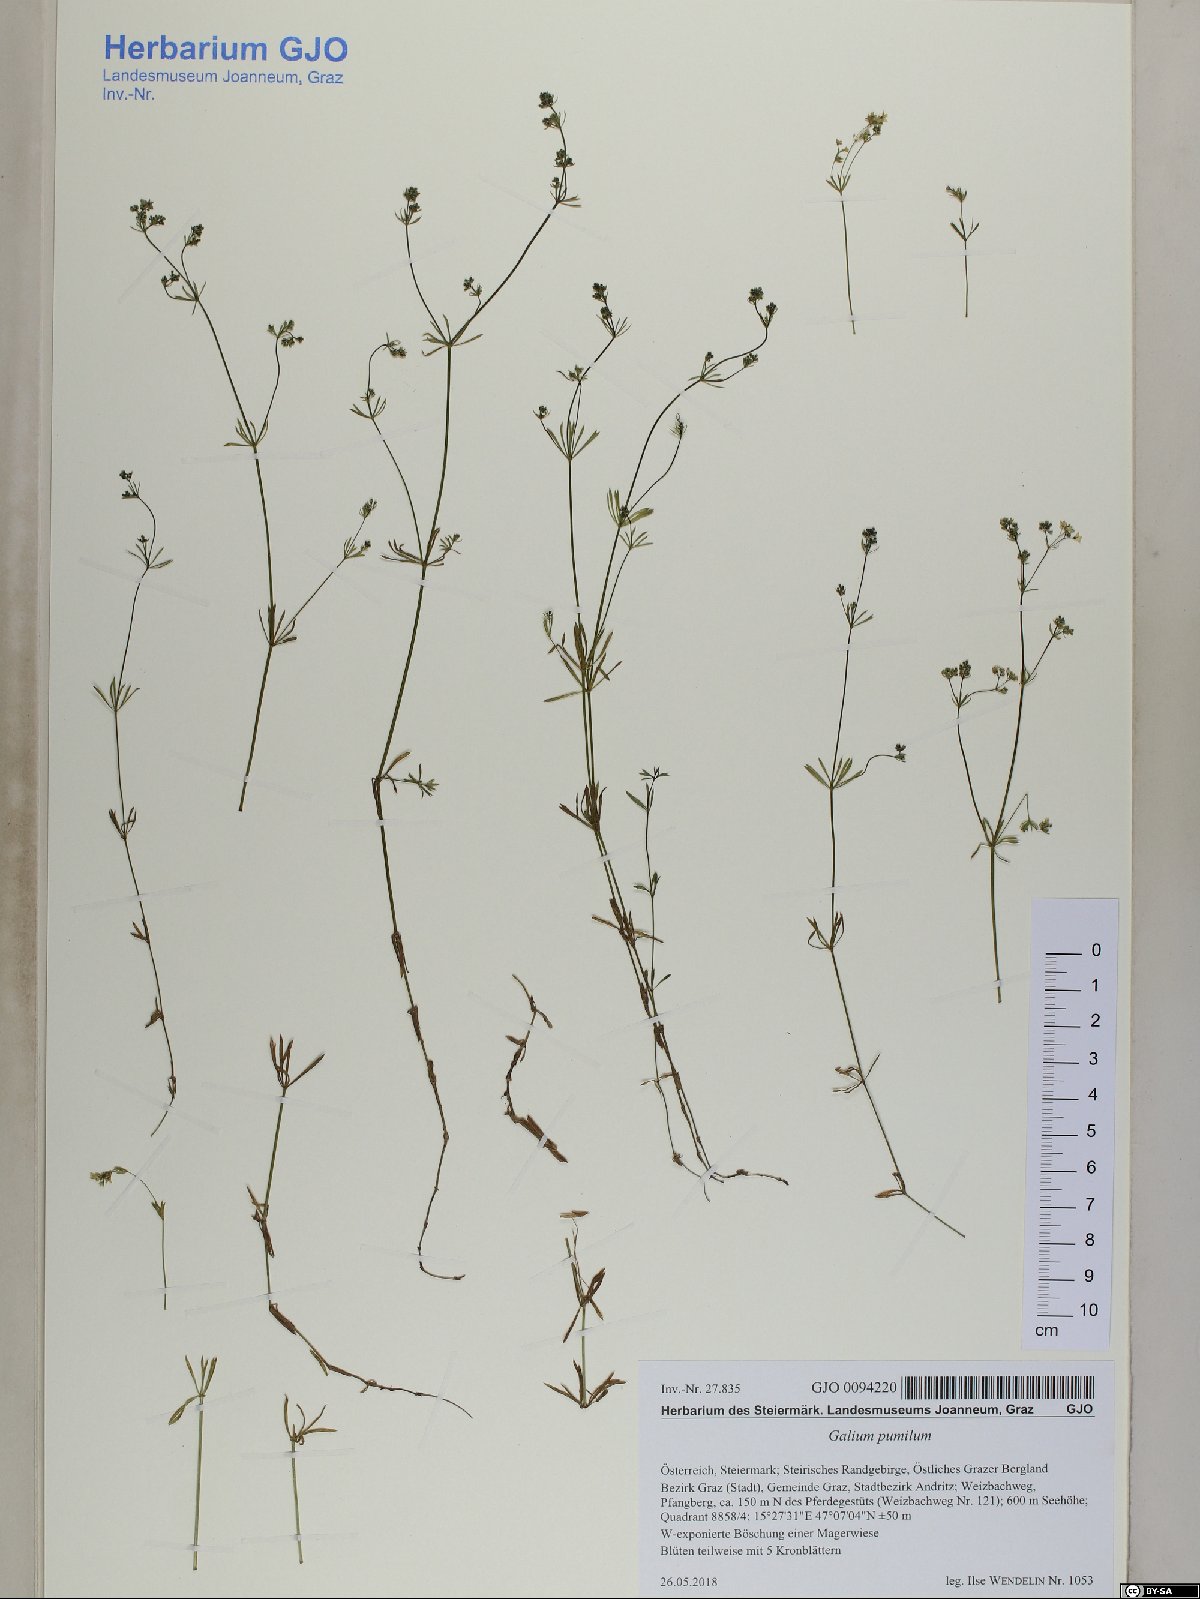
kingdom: Plantae
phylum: Tracheophyta
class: Magnoliopsida
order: Gentianales
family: Rubiaceae
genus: Galium
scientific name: Galium pumilum
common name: Slender bedstraw
